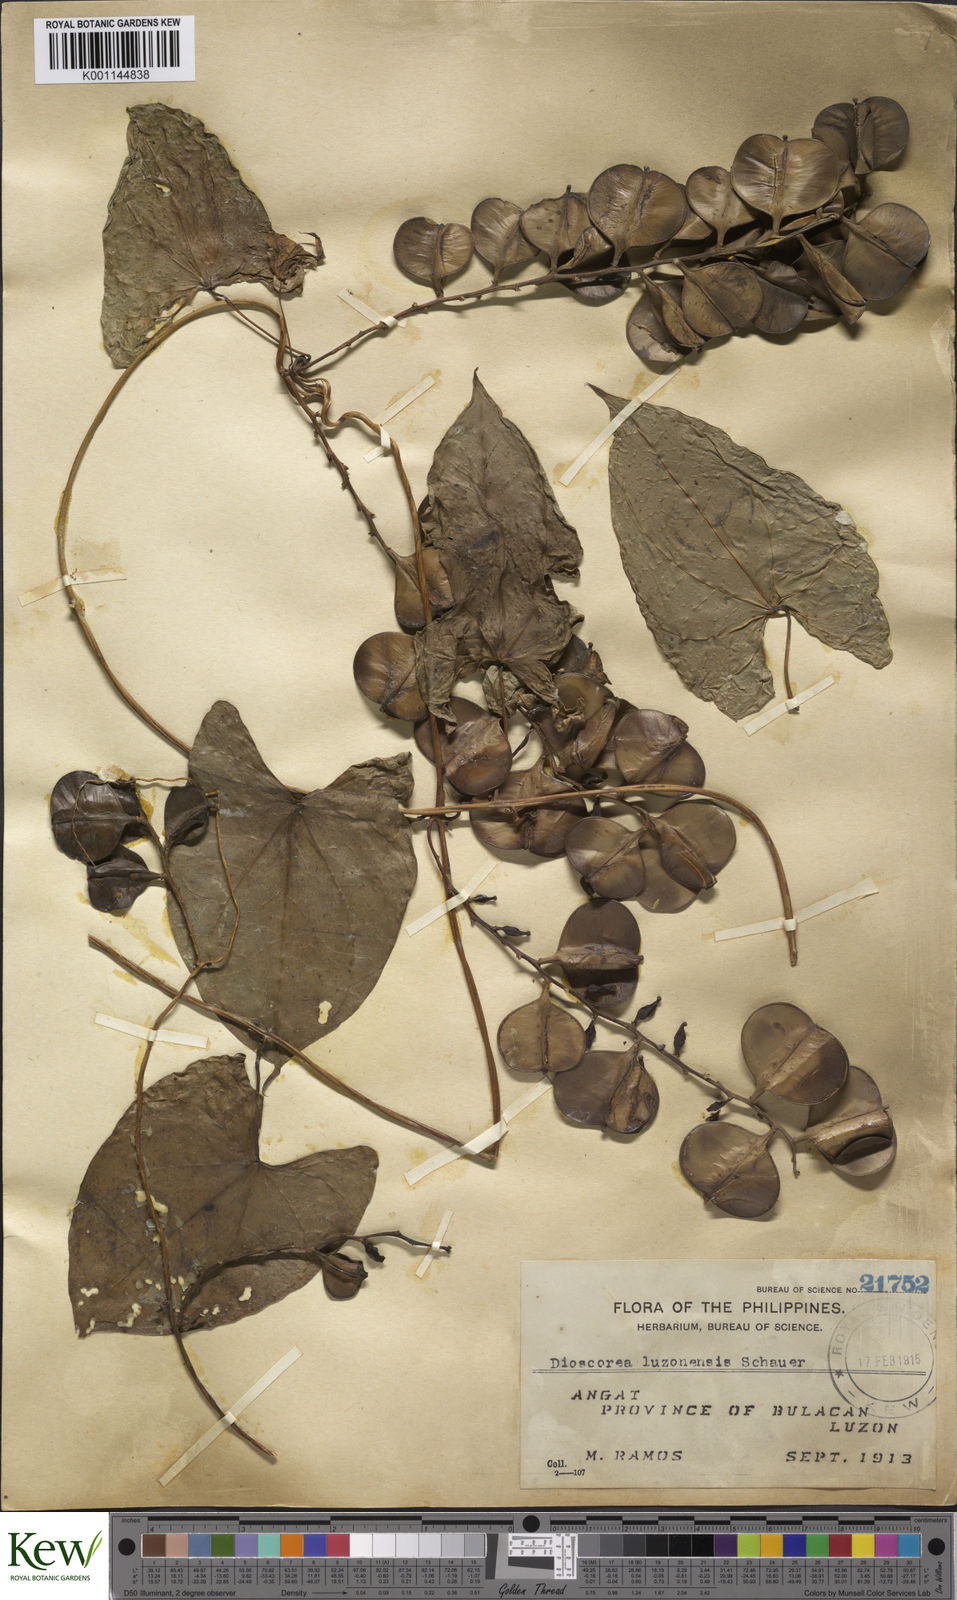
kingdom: Plantae
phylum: Tracheophyta
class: Liliopsida
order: Dioscoreales
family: Dioscoreaceae
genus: Dioscorea
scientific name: Dioscorea luzonensis
